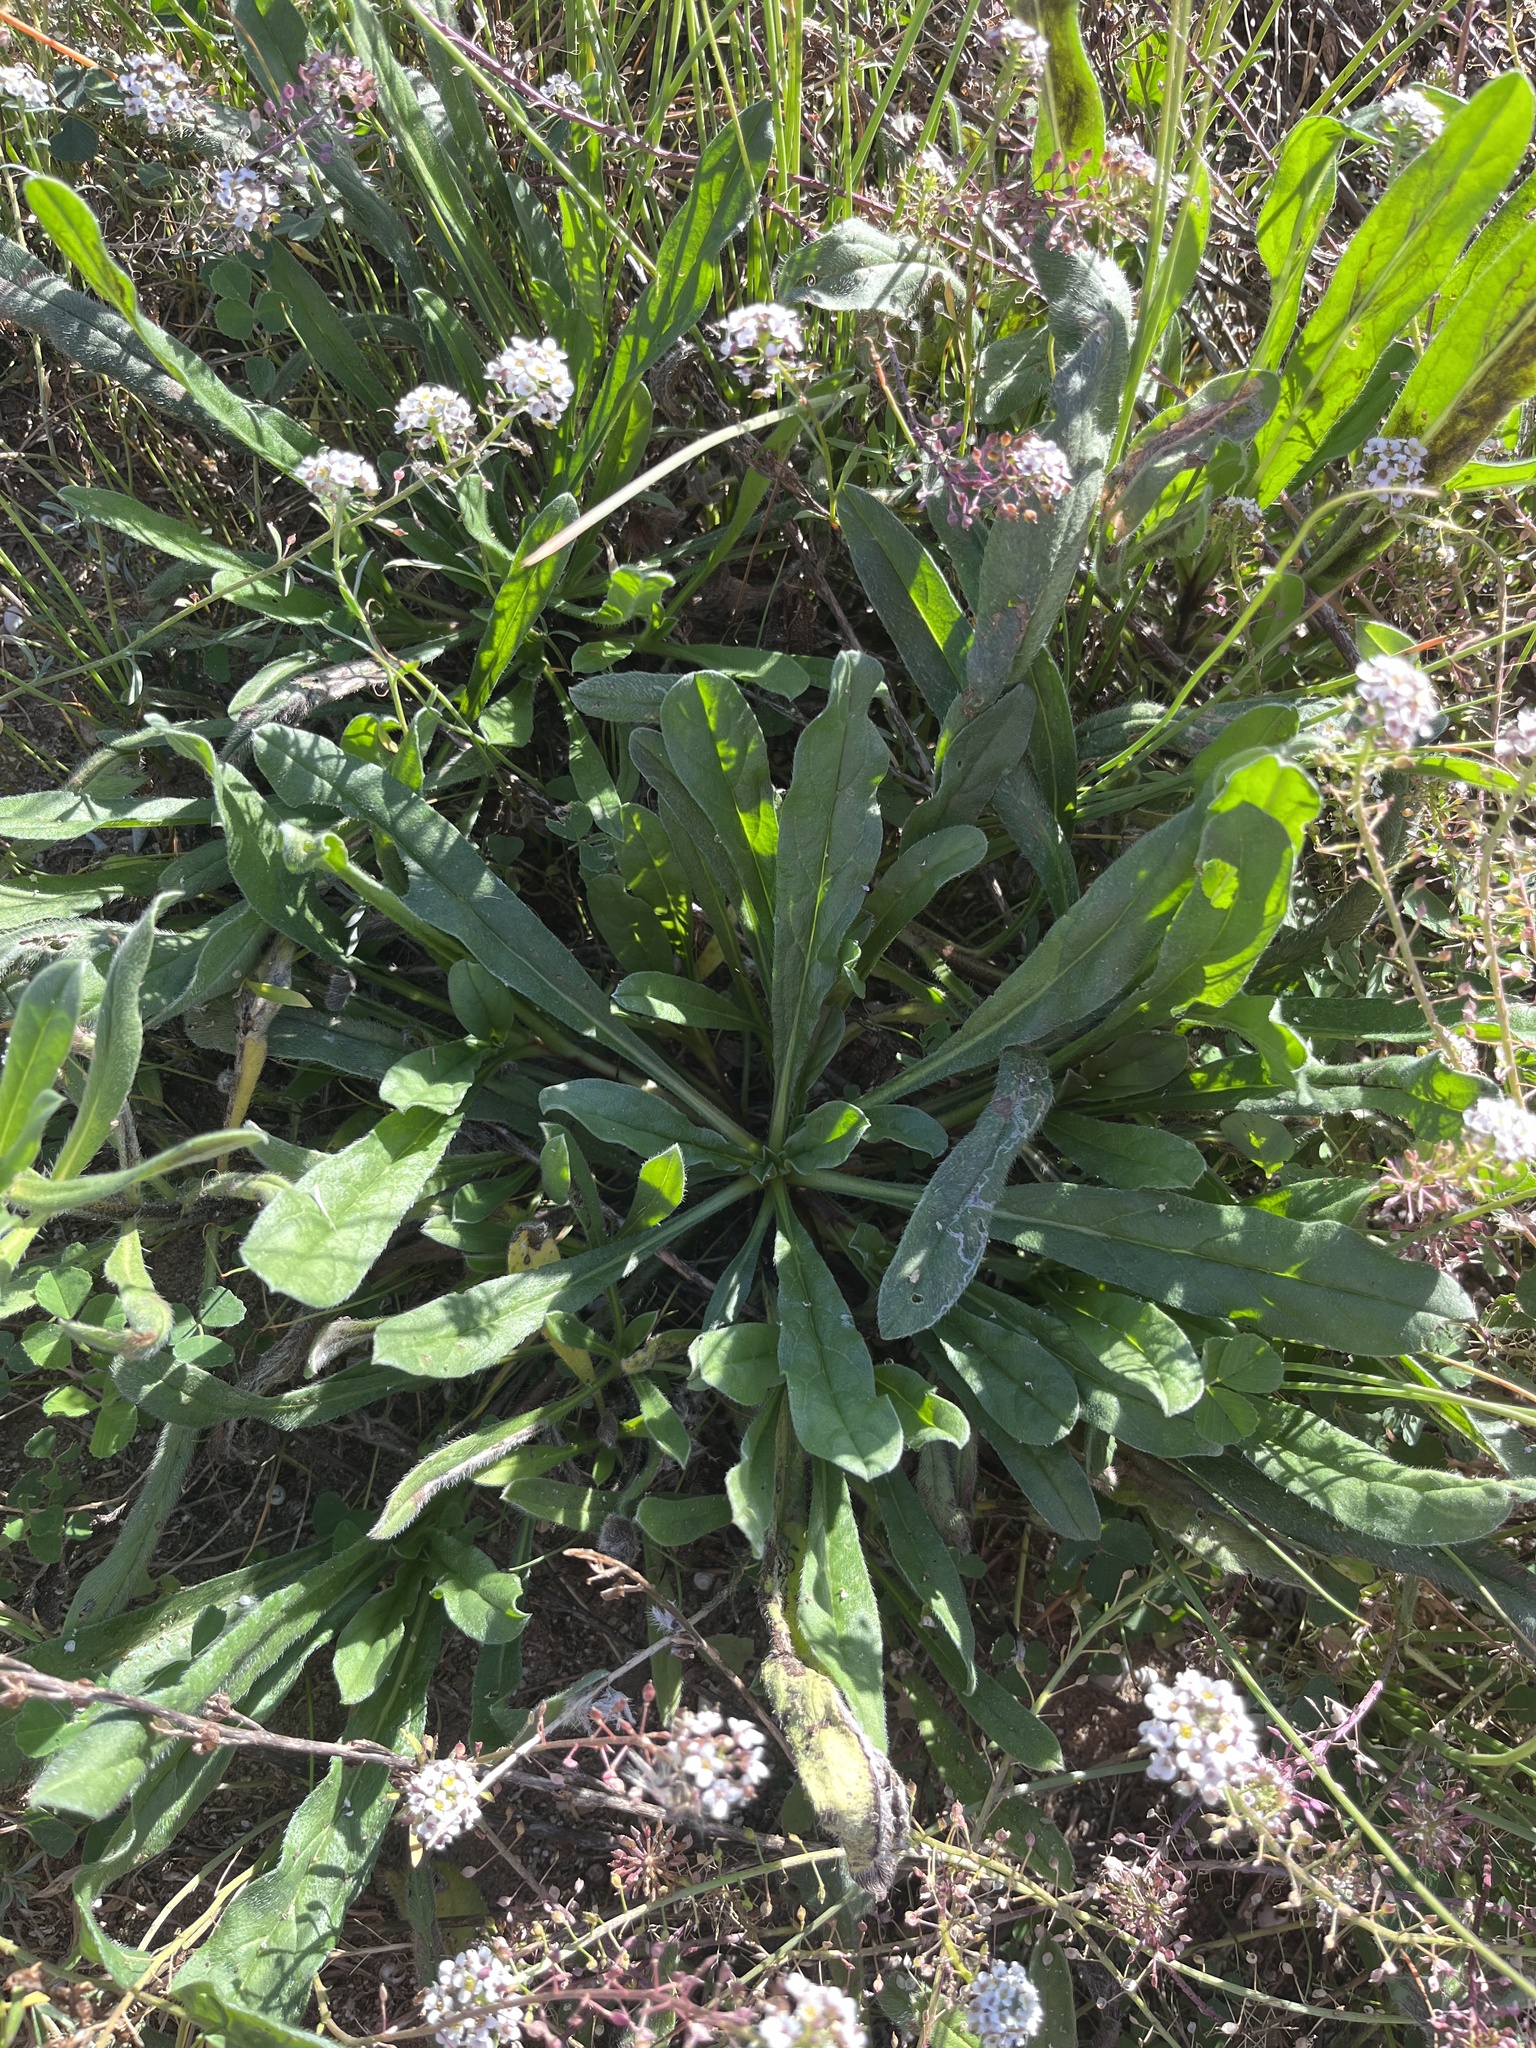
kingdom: Plantae
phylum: Tracheophyta
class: Magnoliopsida
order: Myrtales
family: Onagraceae
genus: Oenothera
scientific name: Oenothera glazioviana
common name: Large-flowered evening-primrose
